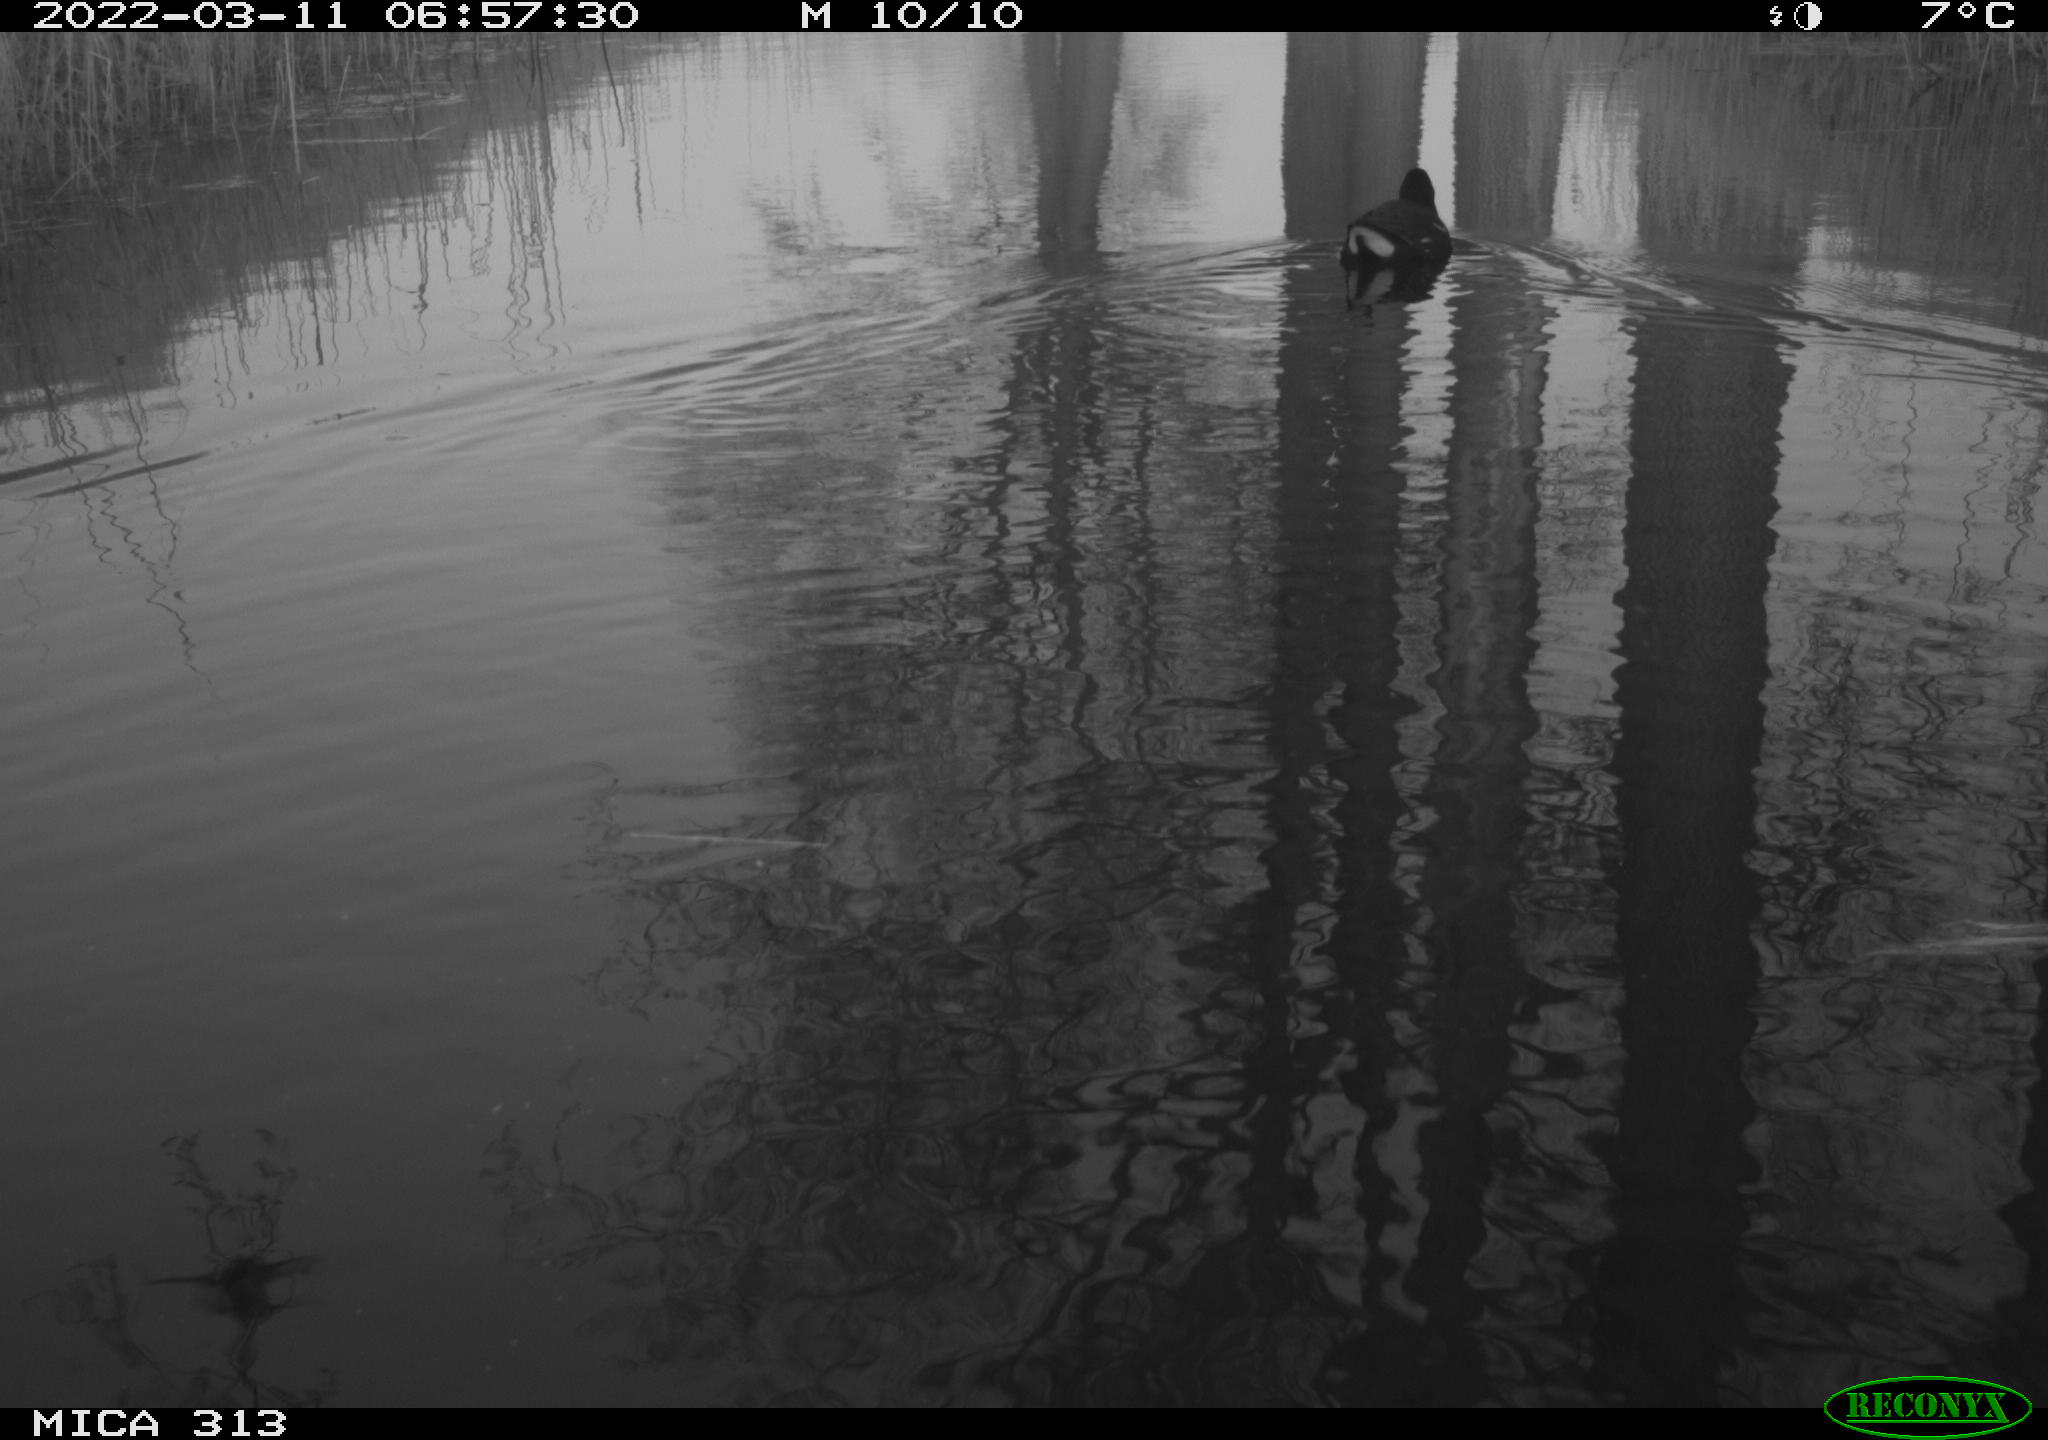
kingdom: Animalia
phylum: Chordata
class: Aves
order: Gruiformes
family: Rallidae
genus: Gallinula
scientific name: Gallinula chloropus
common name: Common moorhen
